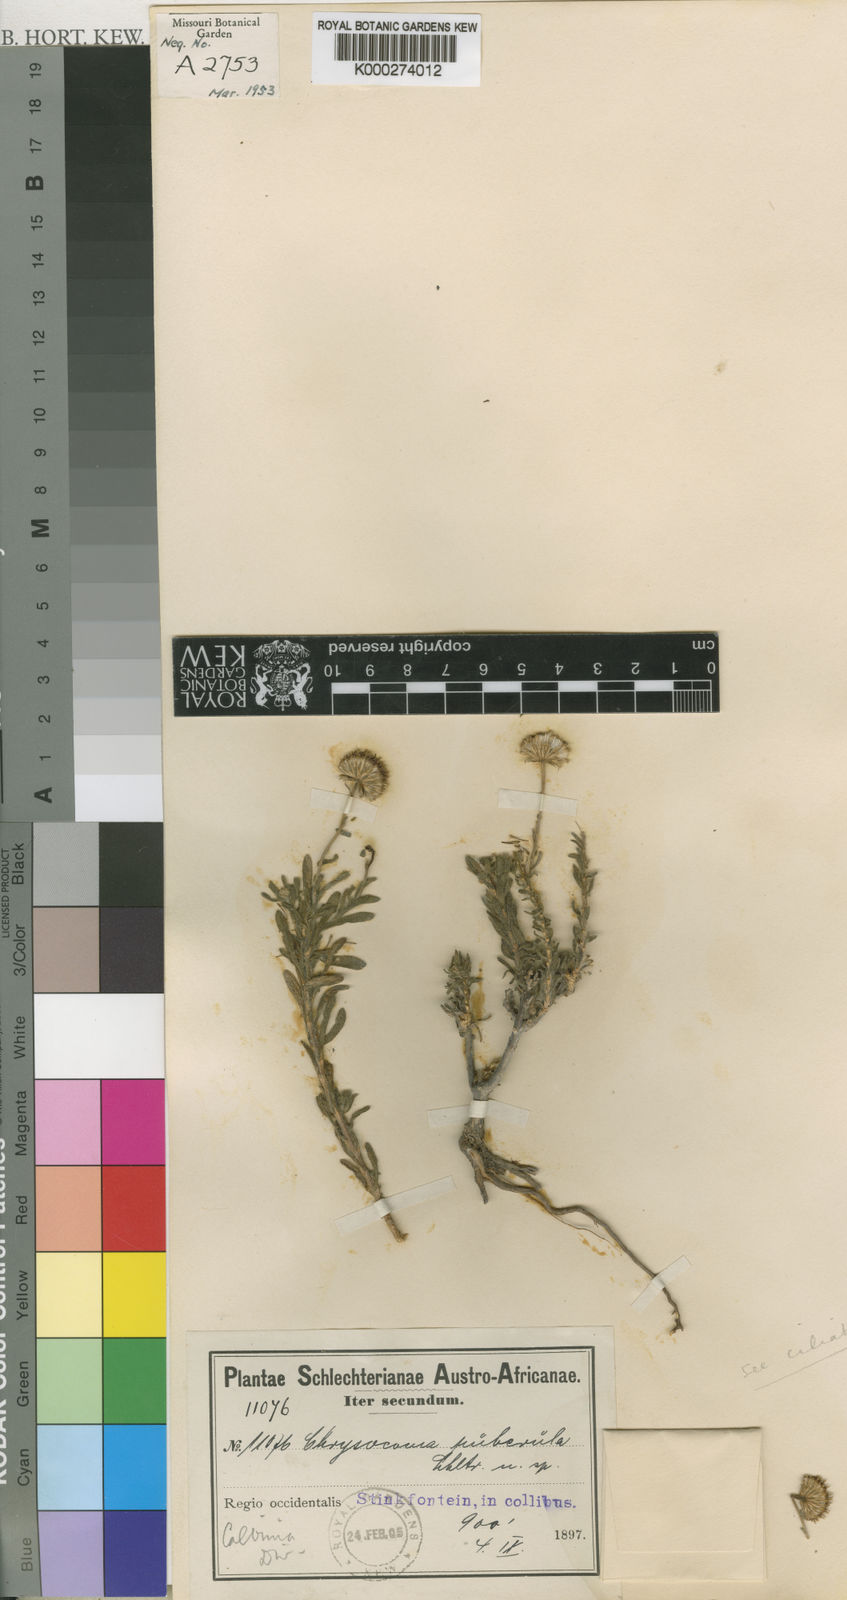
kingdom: Plantae
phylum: Tracheophyta
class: Magnoliopsida
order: Asterales
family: Asteraceae
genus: Chrysocoma
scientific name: Chrysocoma schlechteri
